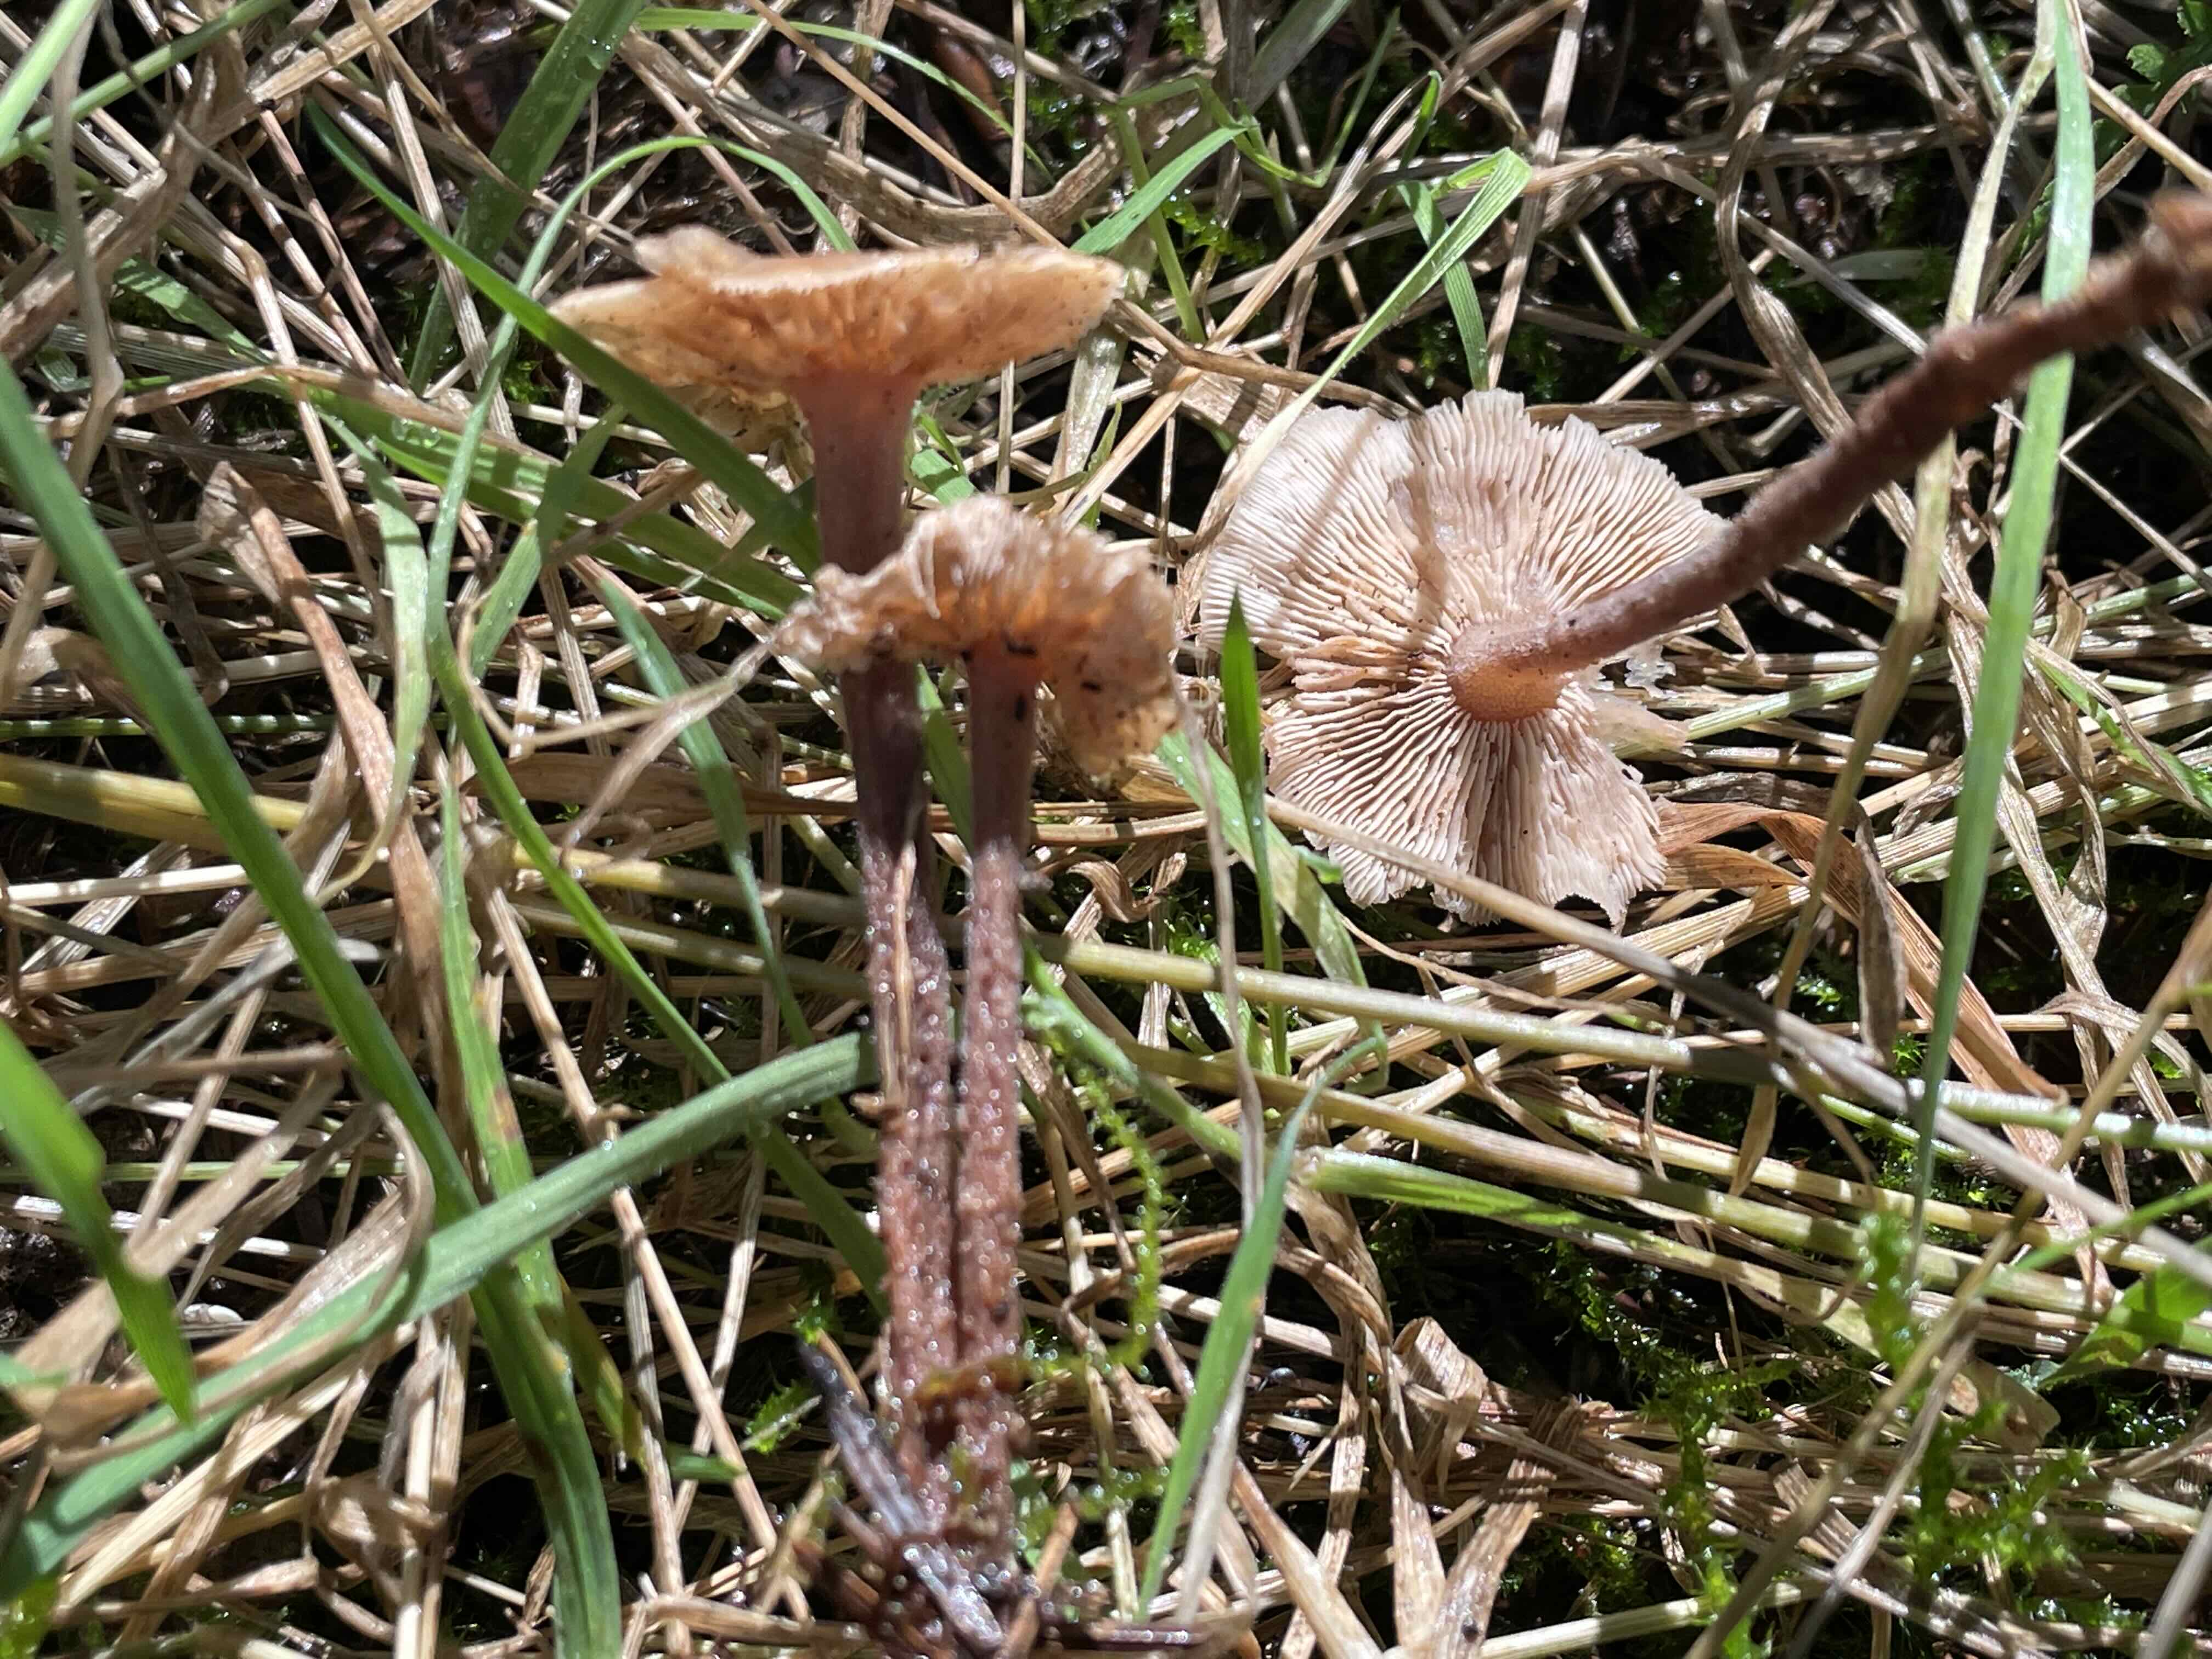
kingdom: Fungi
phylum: Basidiomycota
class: Agaricomycetes
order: Agaricales
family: Omphalotaceae
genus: Collybiopsis
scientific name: Collybiopsis confluens
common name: knippe-fladhat
